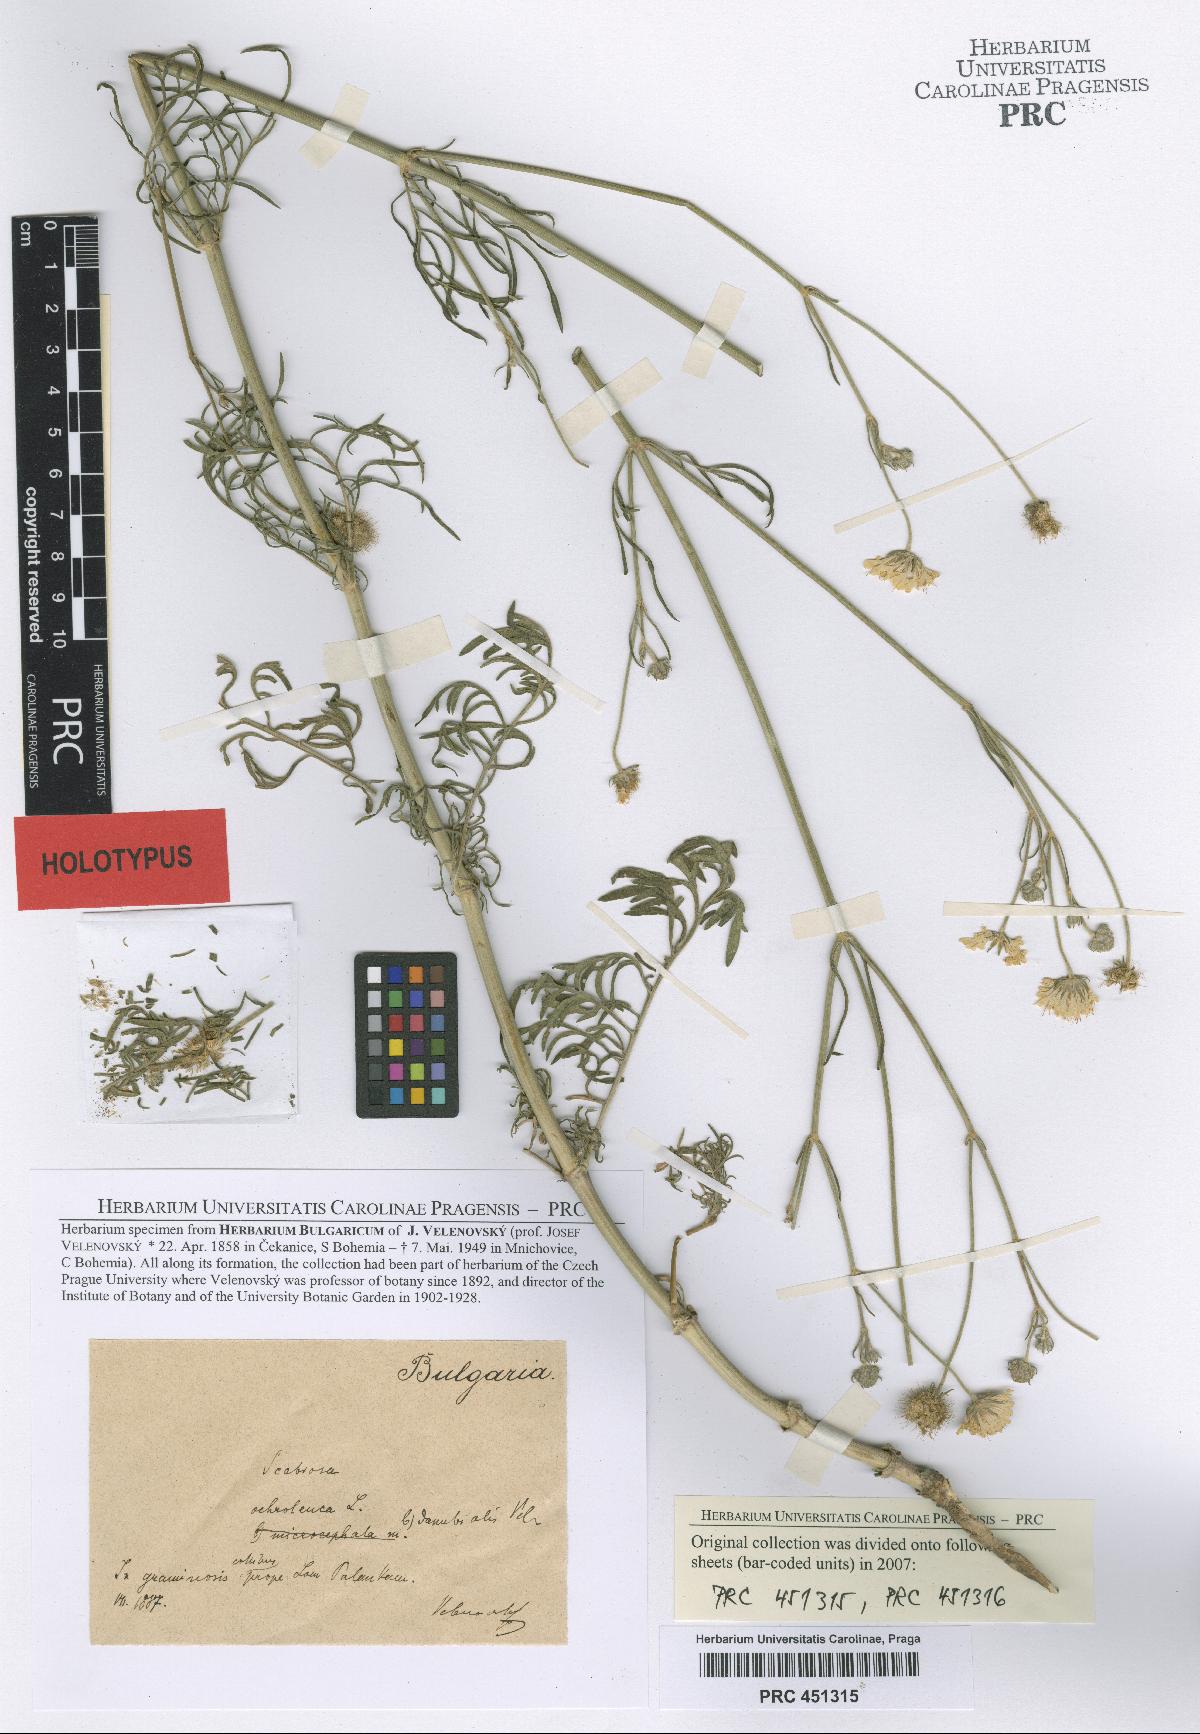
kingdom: Plantae
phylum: Tracheophyta
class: Magnoliopsida
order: Dipsacales
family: Caprifoliaceae
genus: Scabiosa
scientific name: Scabiosa ochroleuca
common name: Cream pincushions
